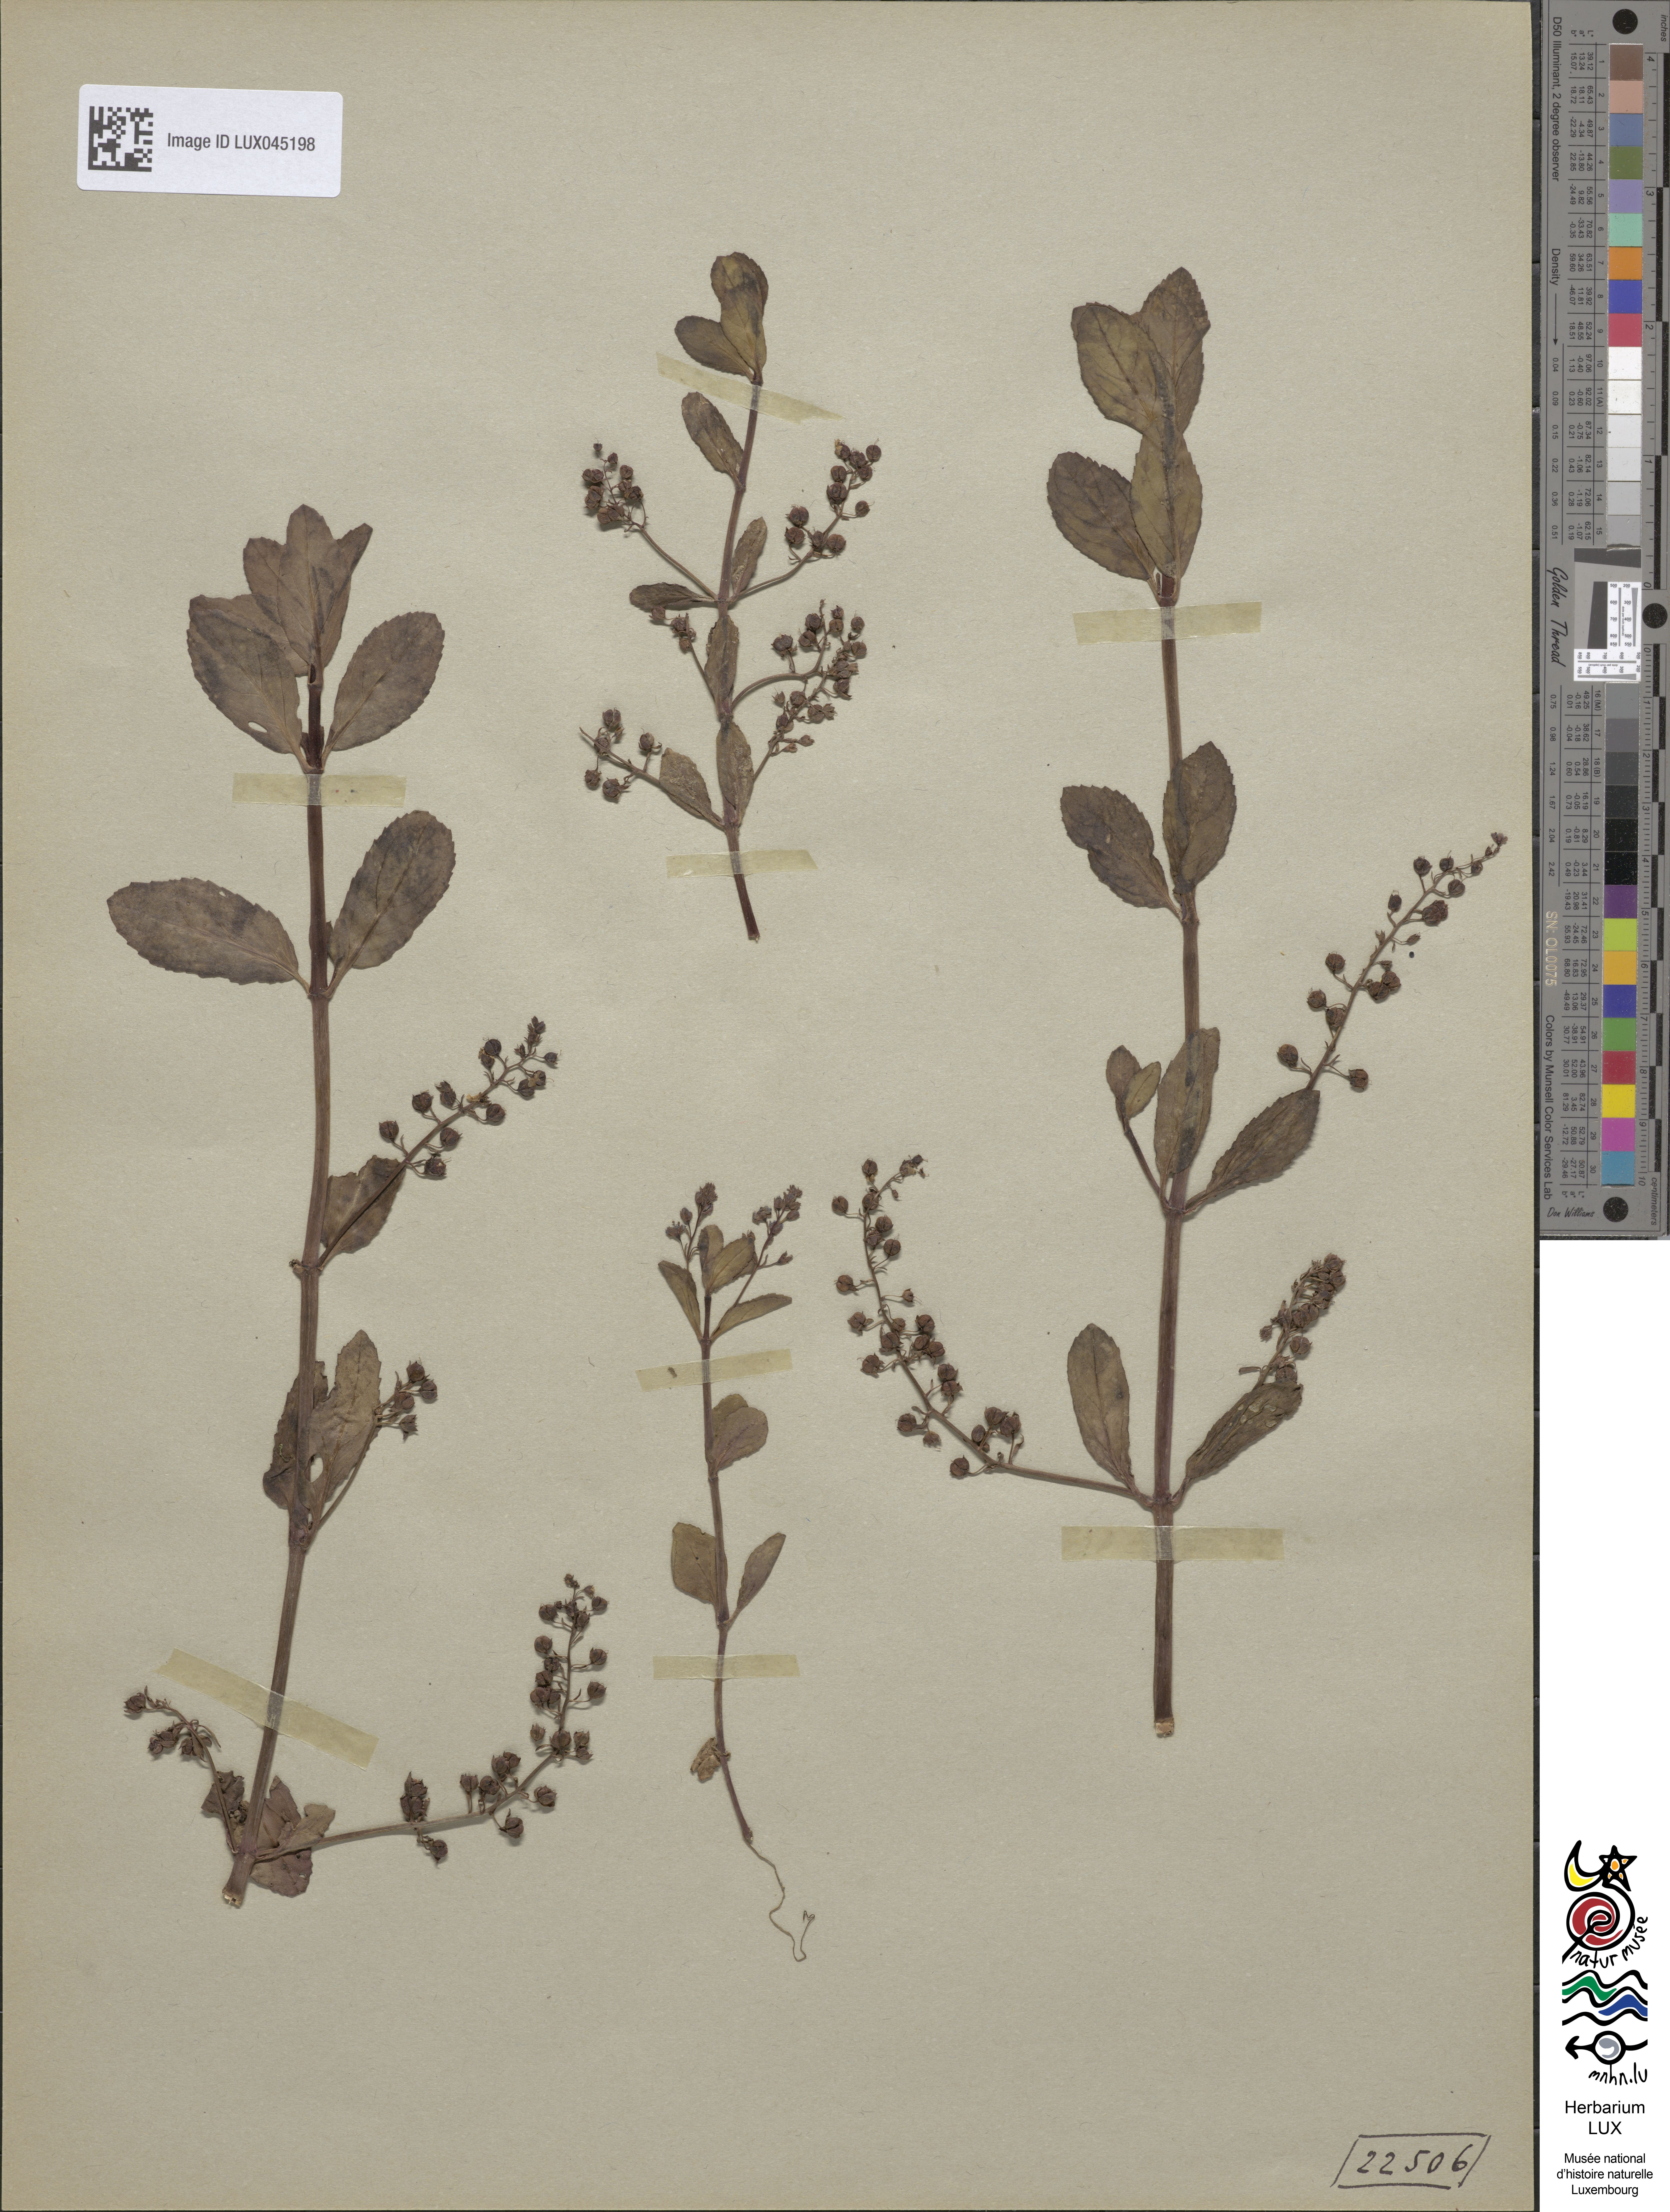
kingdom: Plantae
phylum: Tracheophyta
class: Magnoliopsida
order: Lamiales
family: Plantaginaceae
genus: Veronica
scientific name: Veronica beccabunga
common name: Brooklime
